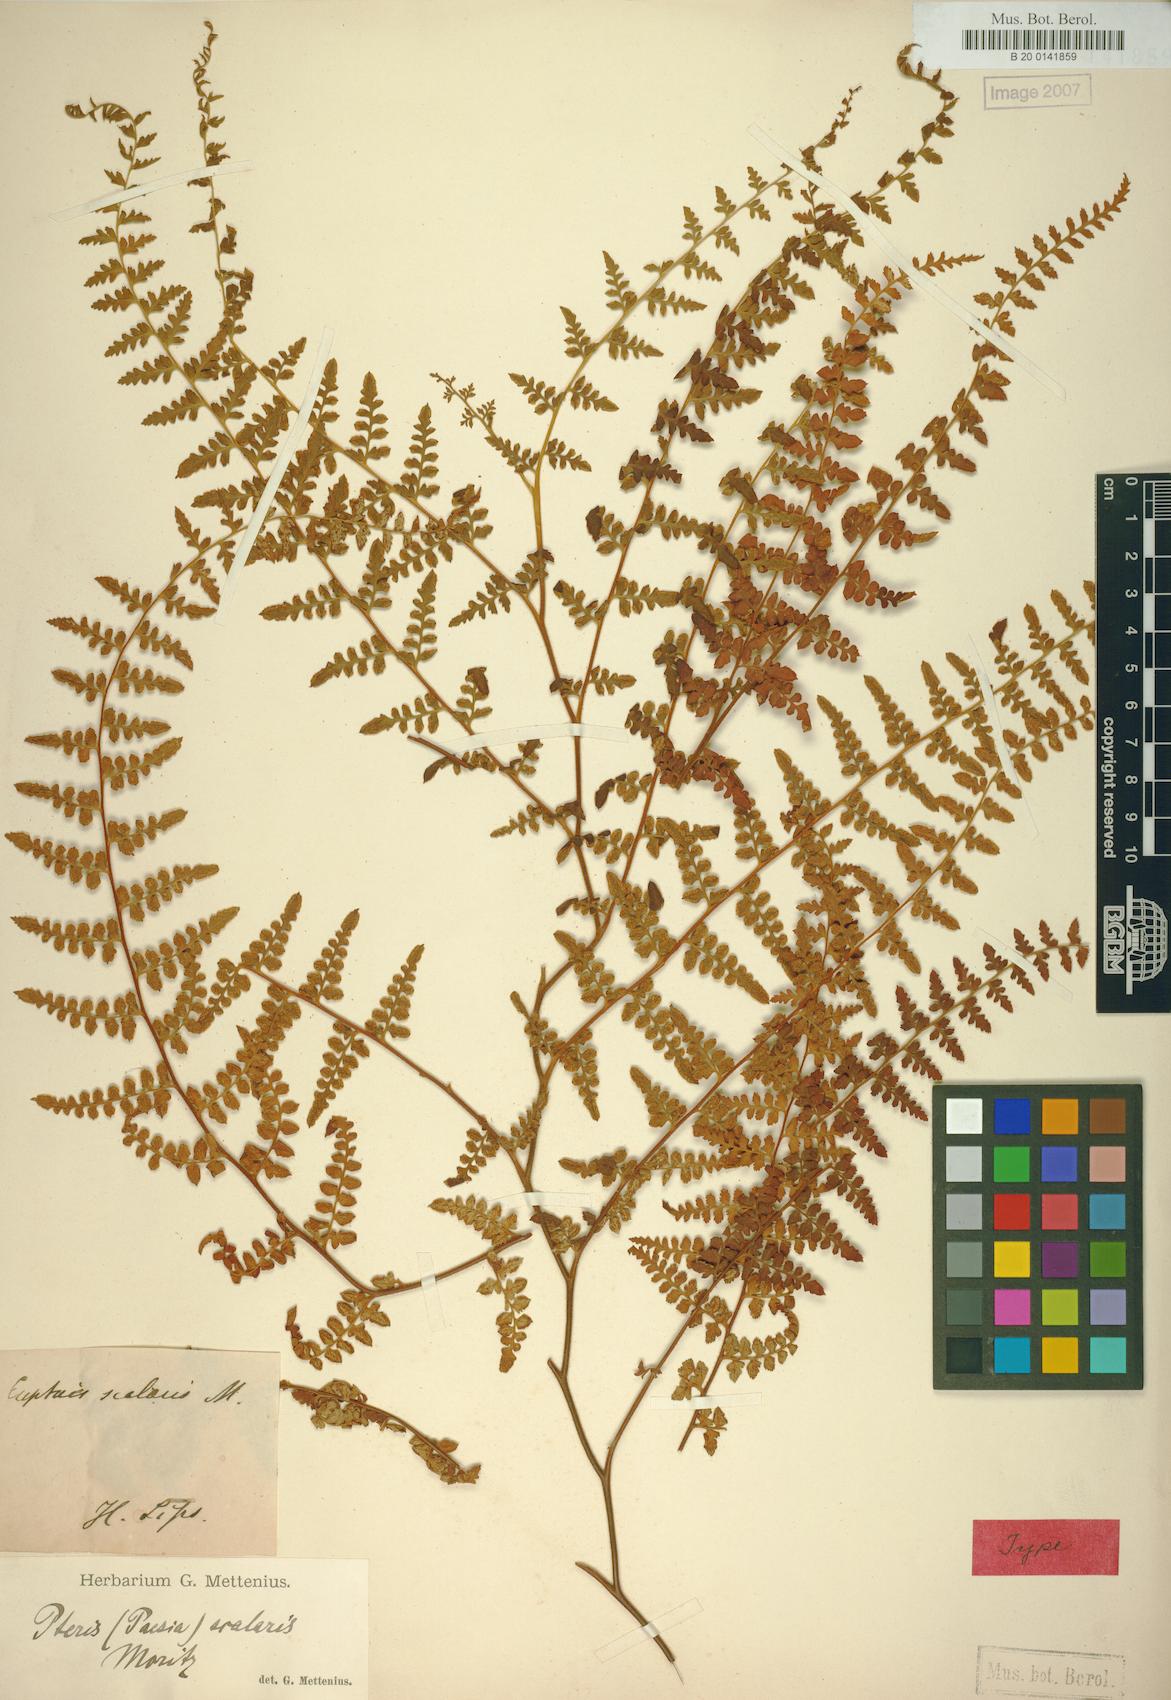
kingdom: Plantae
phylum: Tracheophyta
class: Polypodiopsida
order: Polypodiales
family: Dennstaedtiaceae
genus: Paesia
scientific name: Paesia glandulosa
